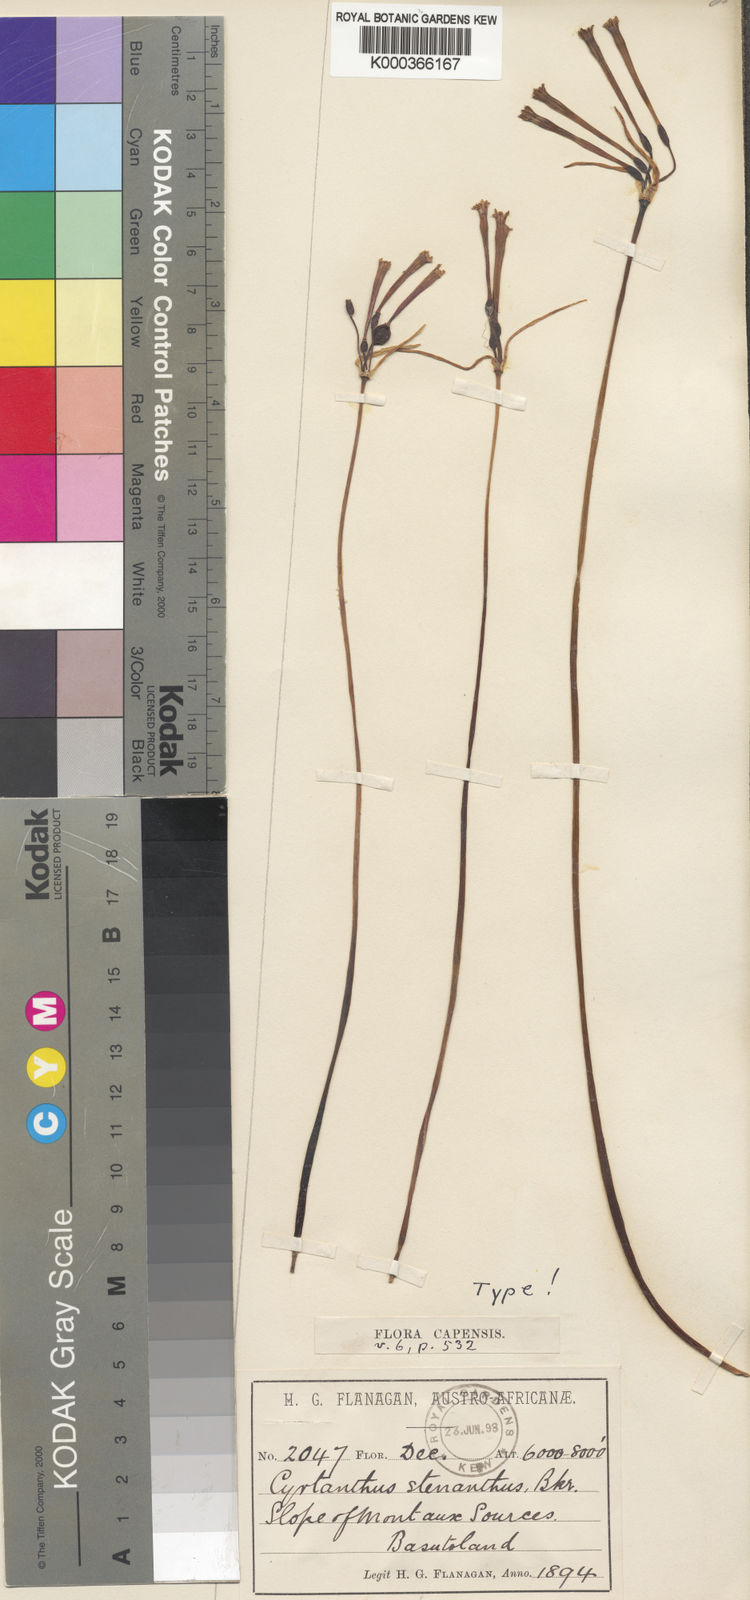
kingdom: Plantae
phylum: Tracheophyta
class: Liliopsida
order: Asparagales
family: Amaryllidaceae
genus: Cyrtanthus
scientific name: Cyrtanthus stenanthus
